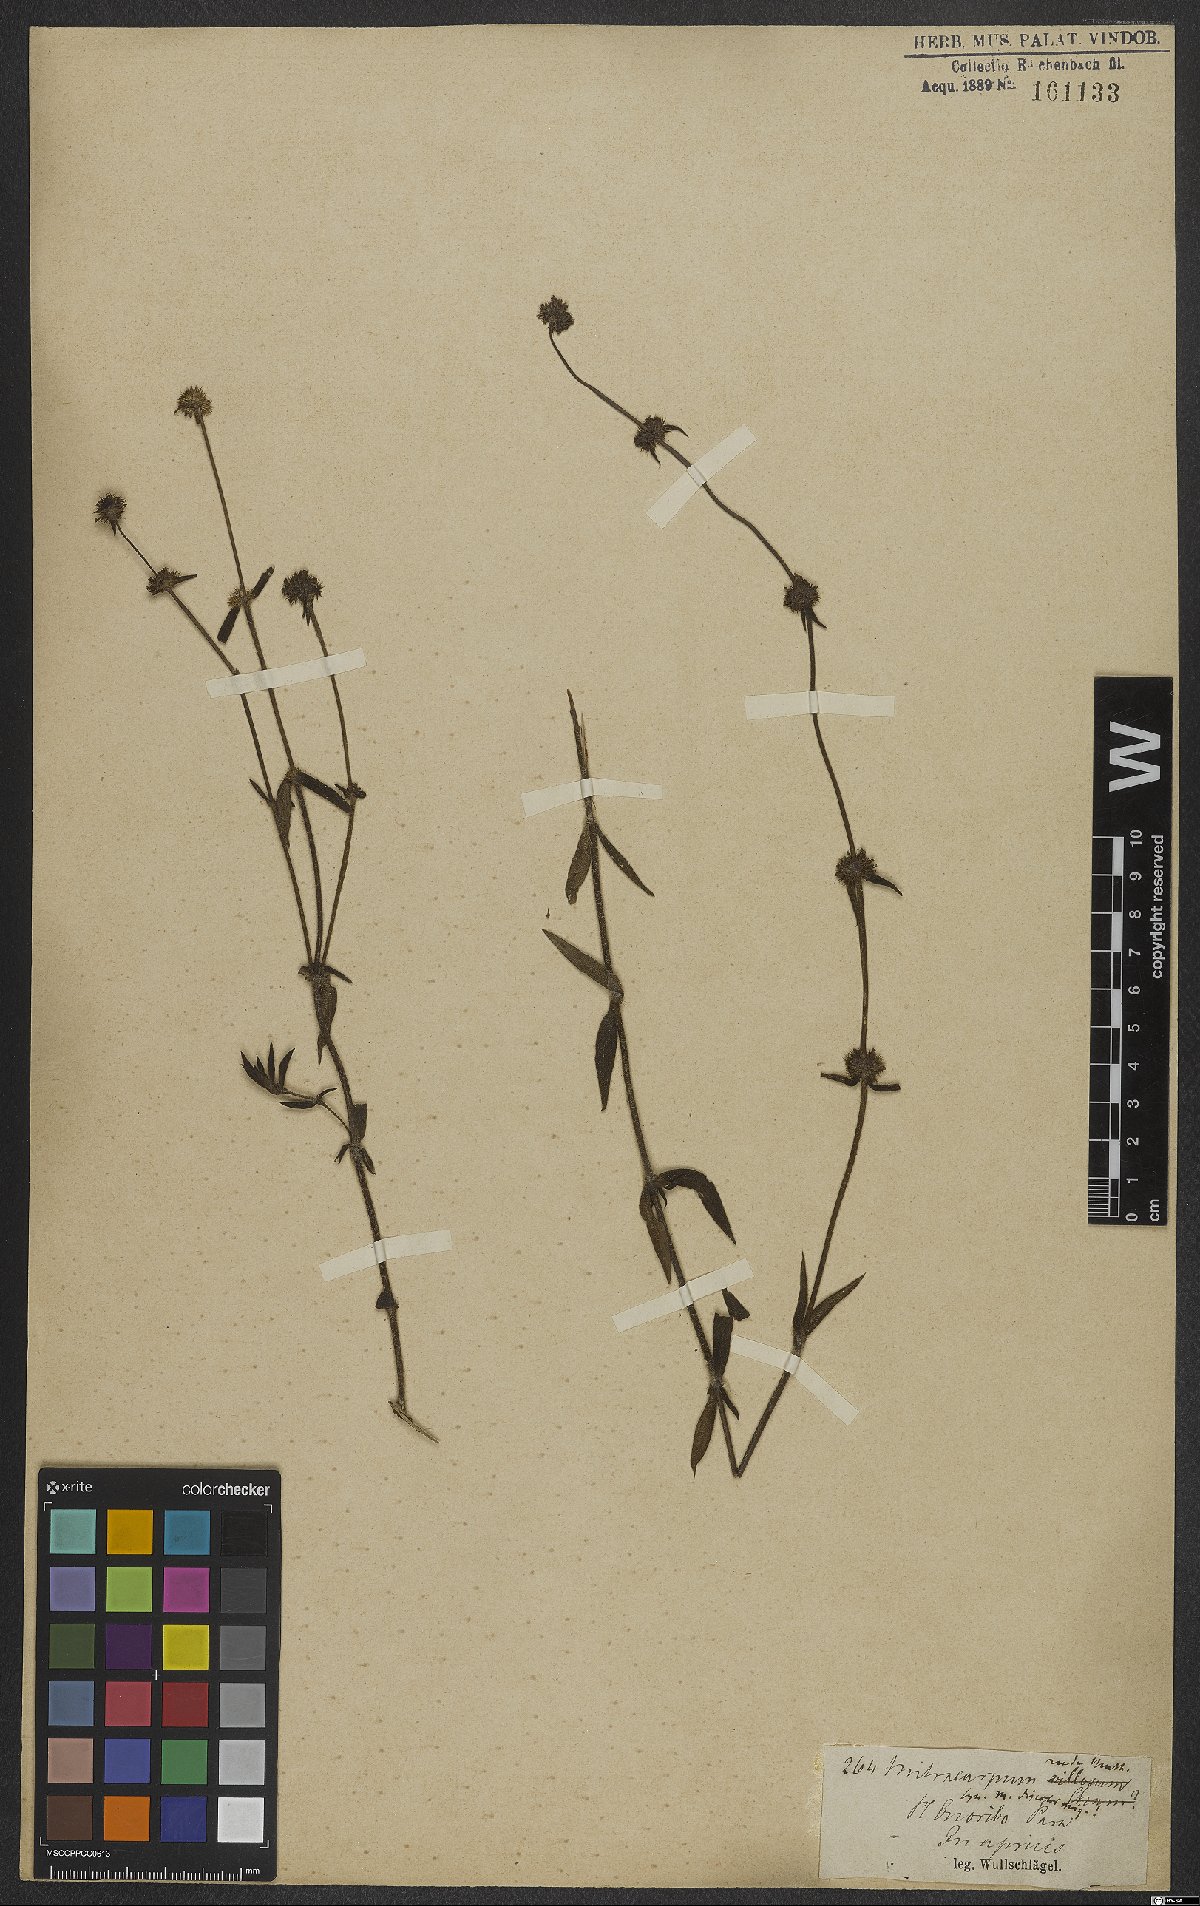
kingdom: Plantae
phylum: Tracheophyta
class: Magnoliopsida
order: Gentianales
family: Rubiaceae
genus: Mitracarpus
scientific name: Mitracarpus frigidus
